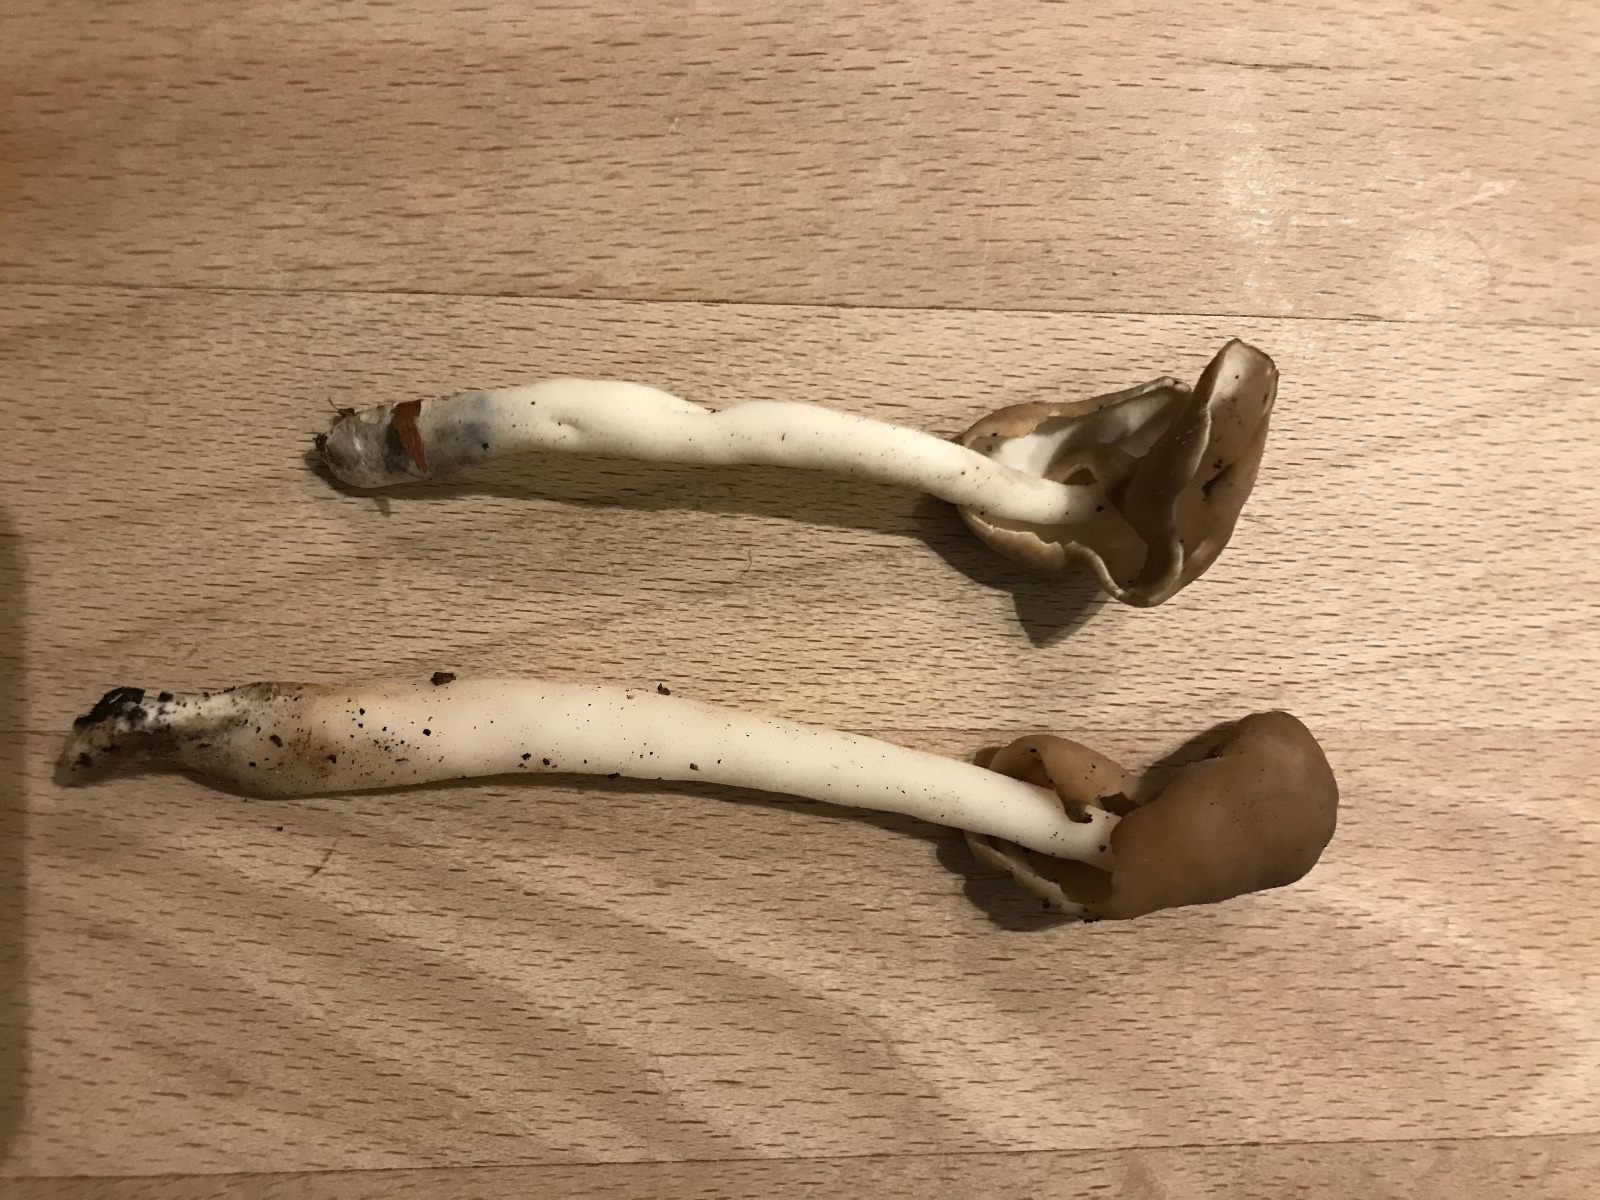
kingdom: Fungi
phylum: Ascomycota
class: Pezizomycetes
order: Pezizales
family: Helvellaceae
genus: Helvella
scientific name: Helvella elastica
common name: elastik-foldhat
